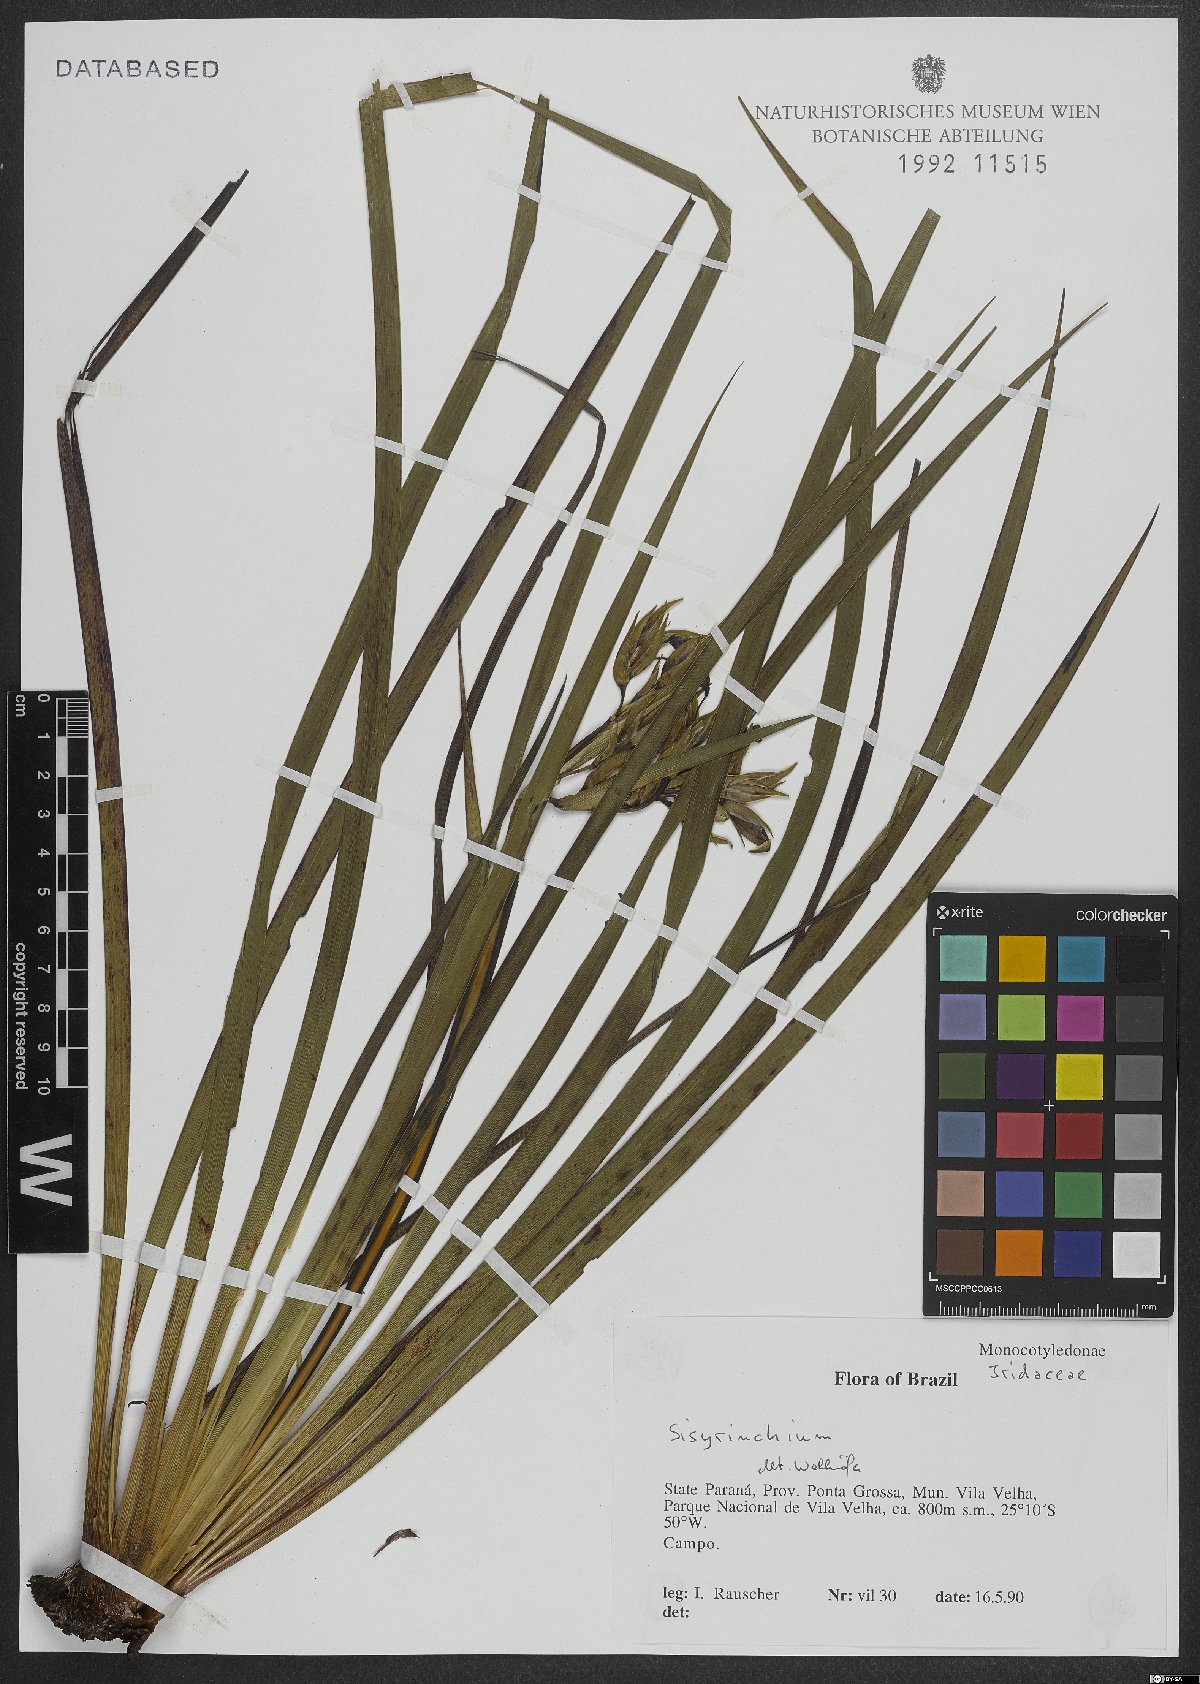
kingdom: Plantae
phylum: Tracheophyta
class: Liliopsida
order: Asparagales
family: Iridaceae
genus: Sisyrinchium
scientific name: Sisyrinchium
